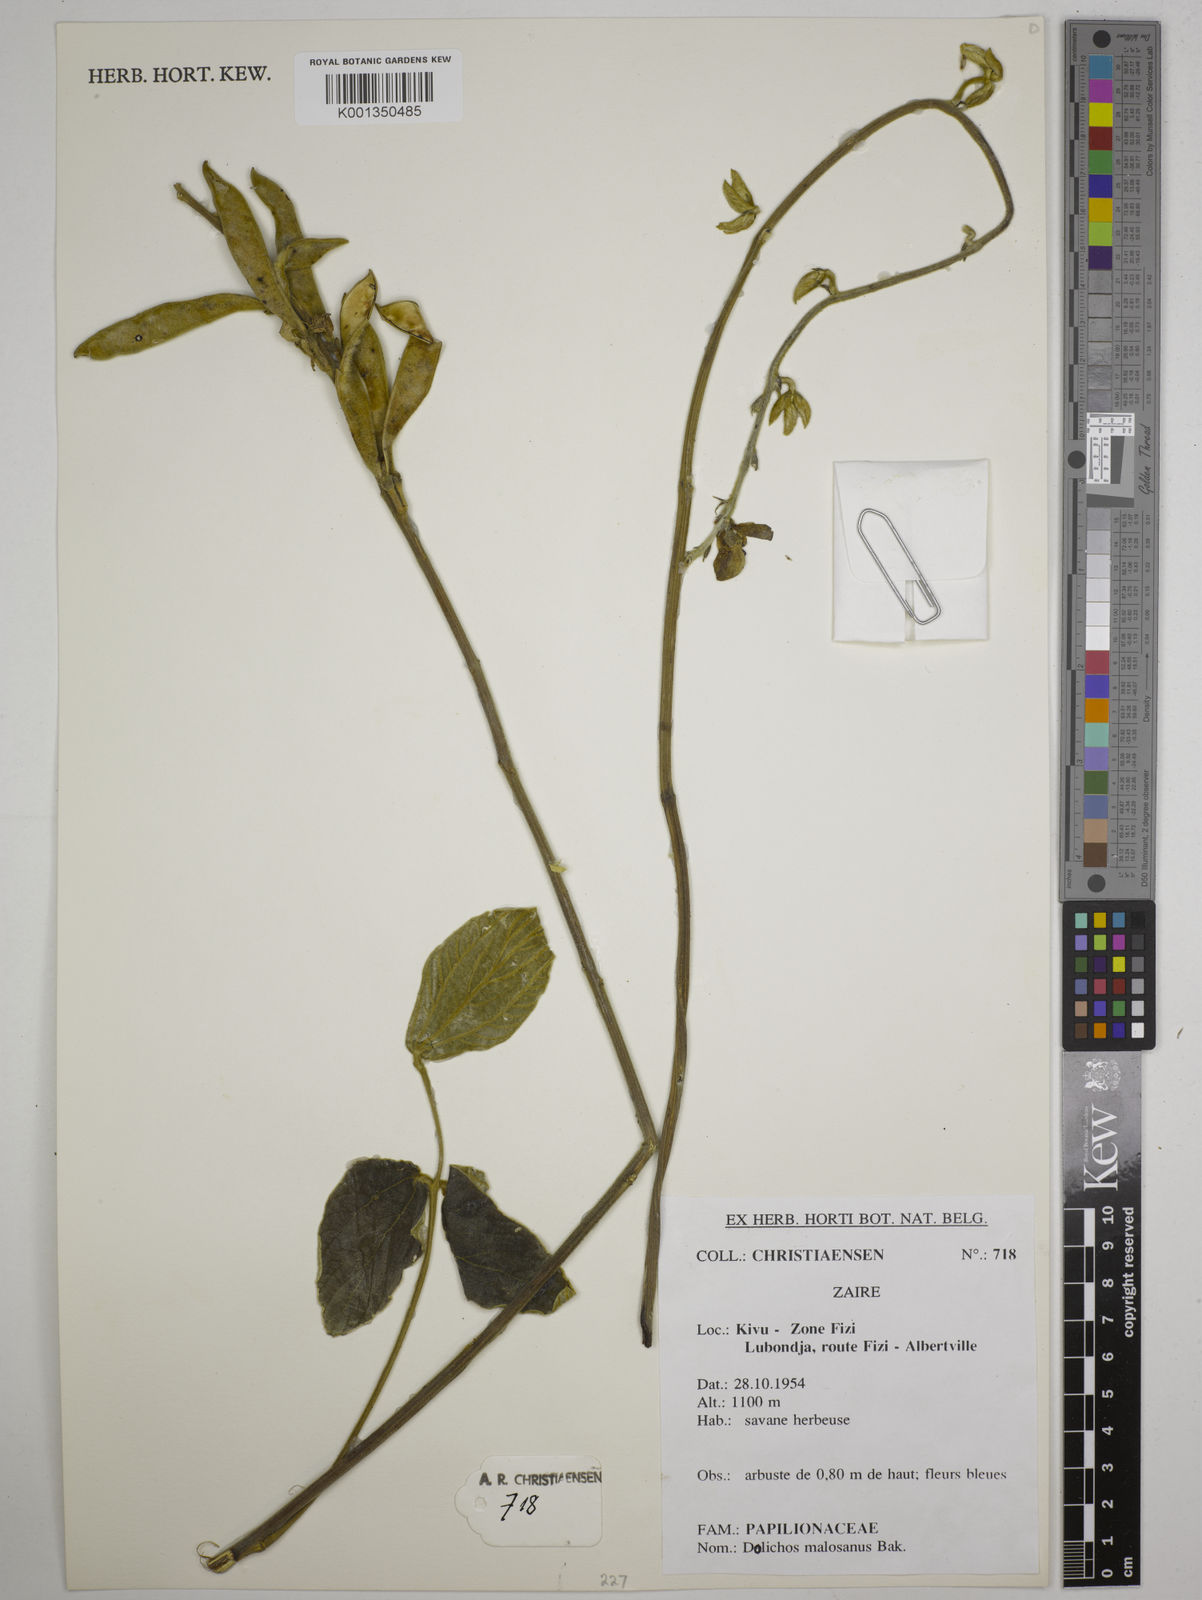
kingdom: Plantae
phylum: Tracheophyta
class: Magnoliopsida
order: Fabales
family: Fabaceae
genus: Dolichos
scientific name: Dolichos kilimandscharicus
